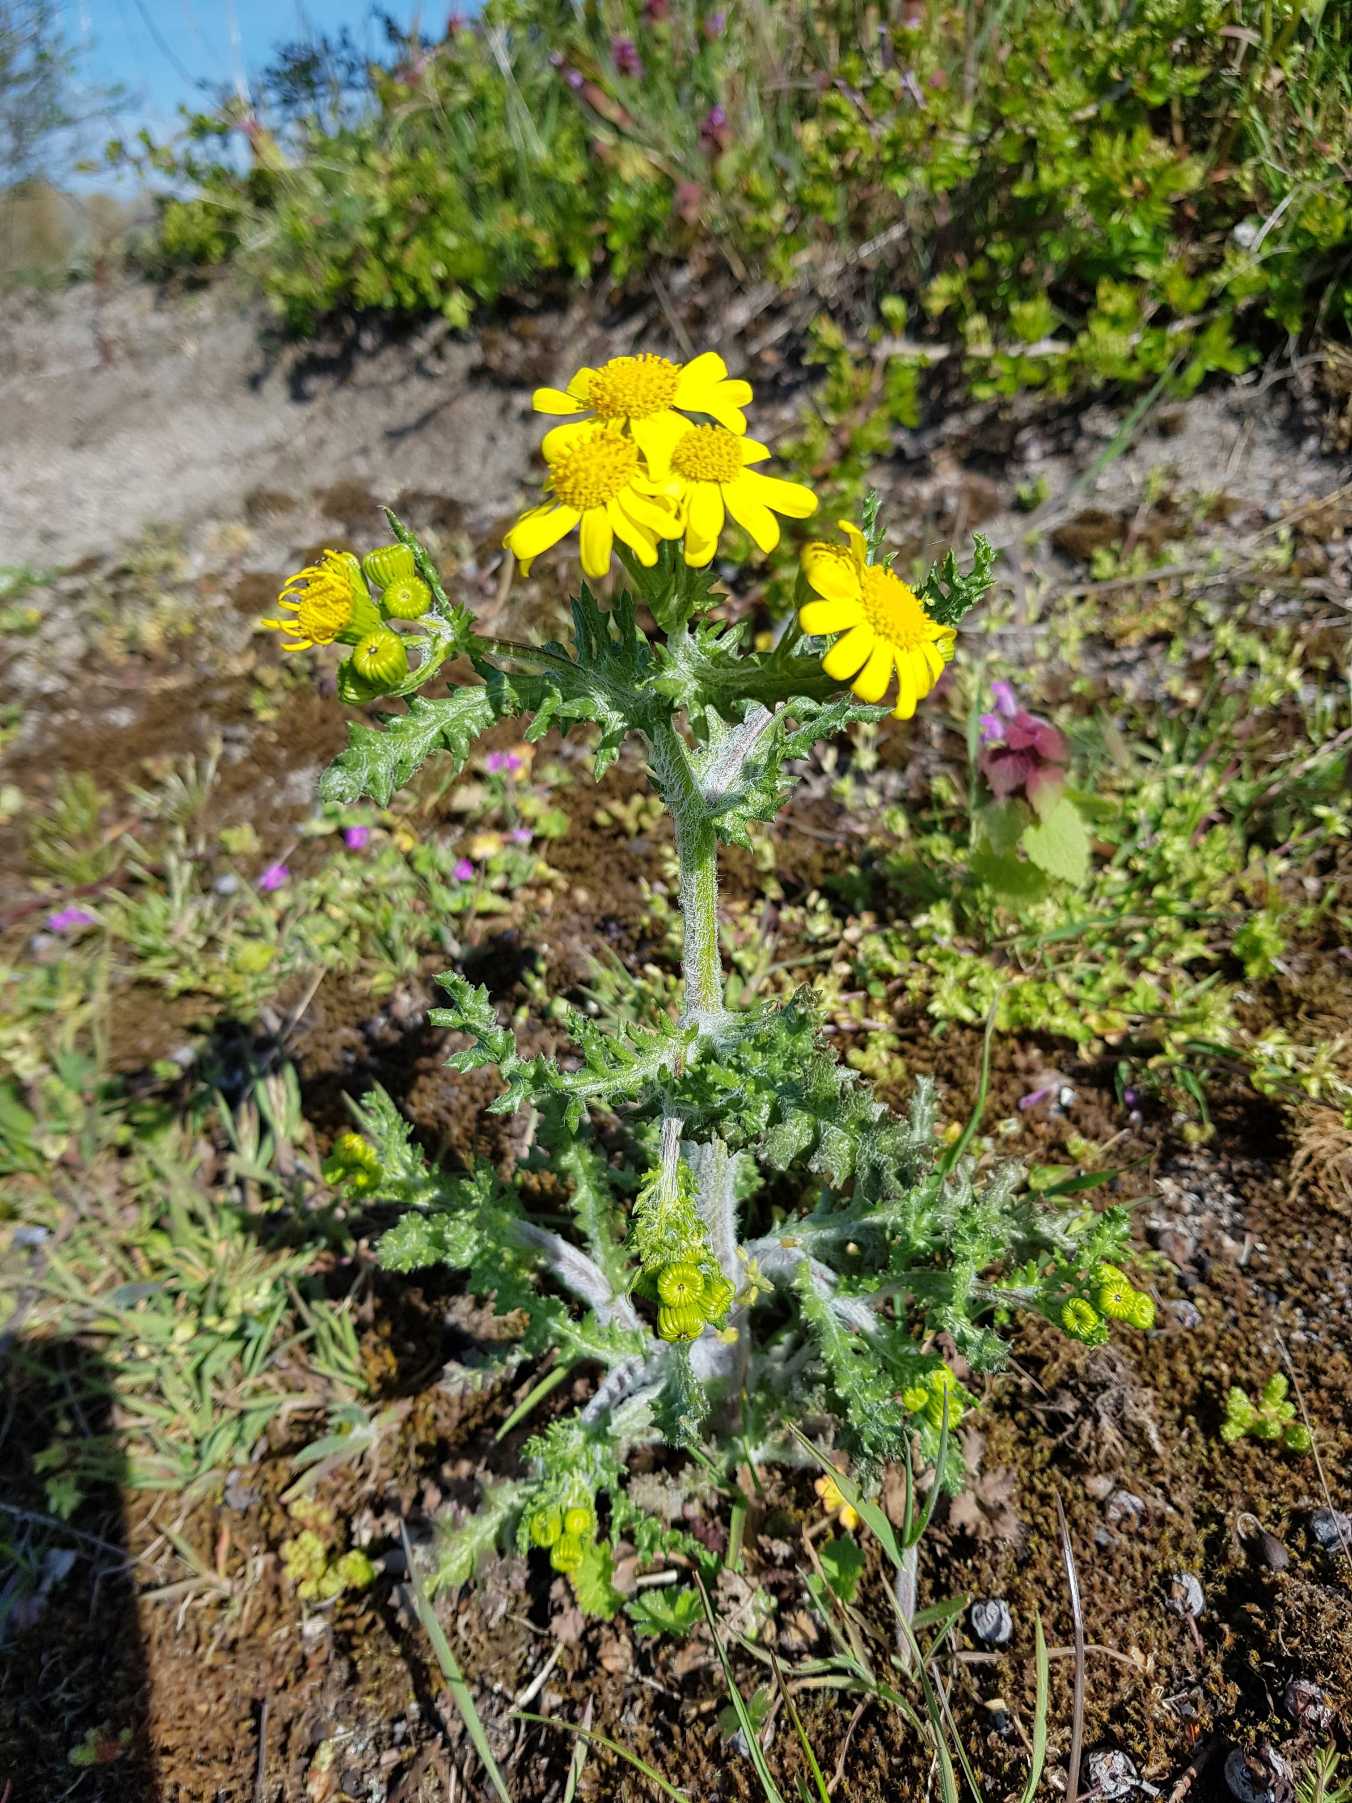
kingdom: Plantae
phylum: Tracheophyta
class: Magnoliopsida
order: Asterales
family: Asteraceae
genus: Senecio
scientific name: Senecio leucanthemifolius
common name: Vår-brandbæger
